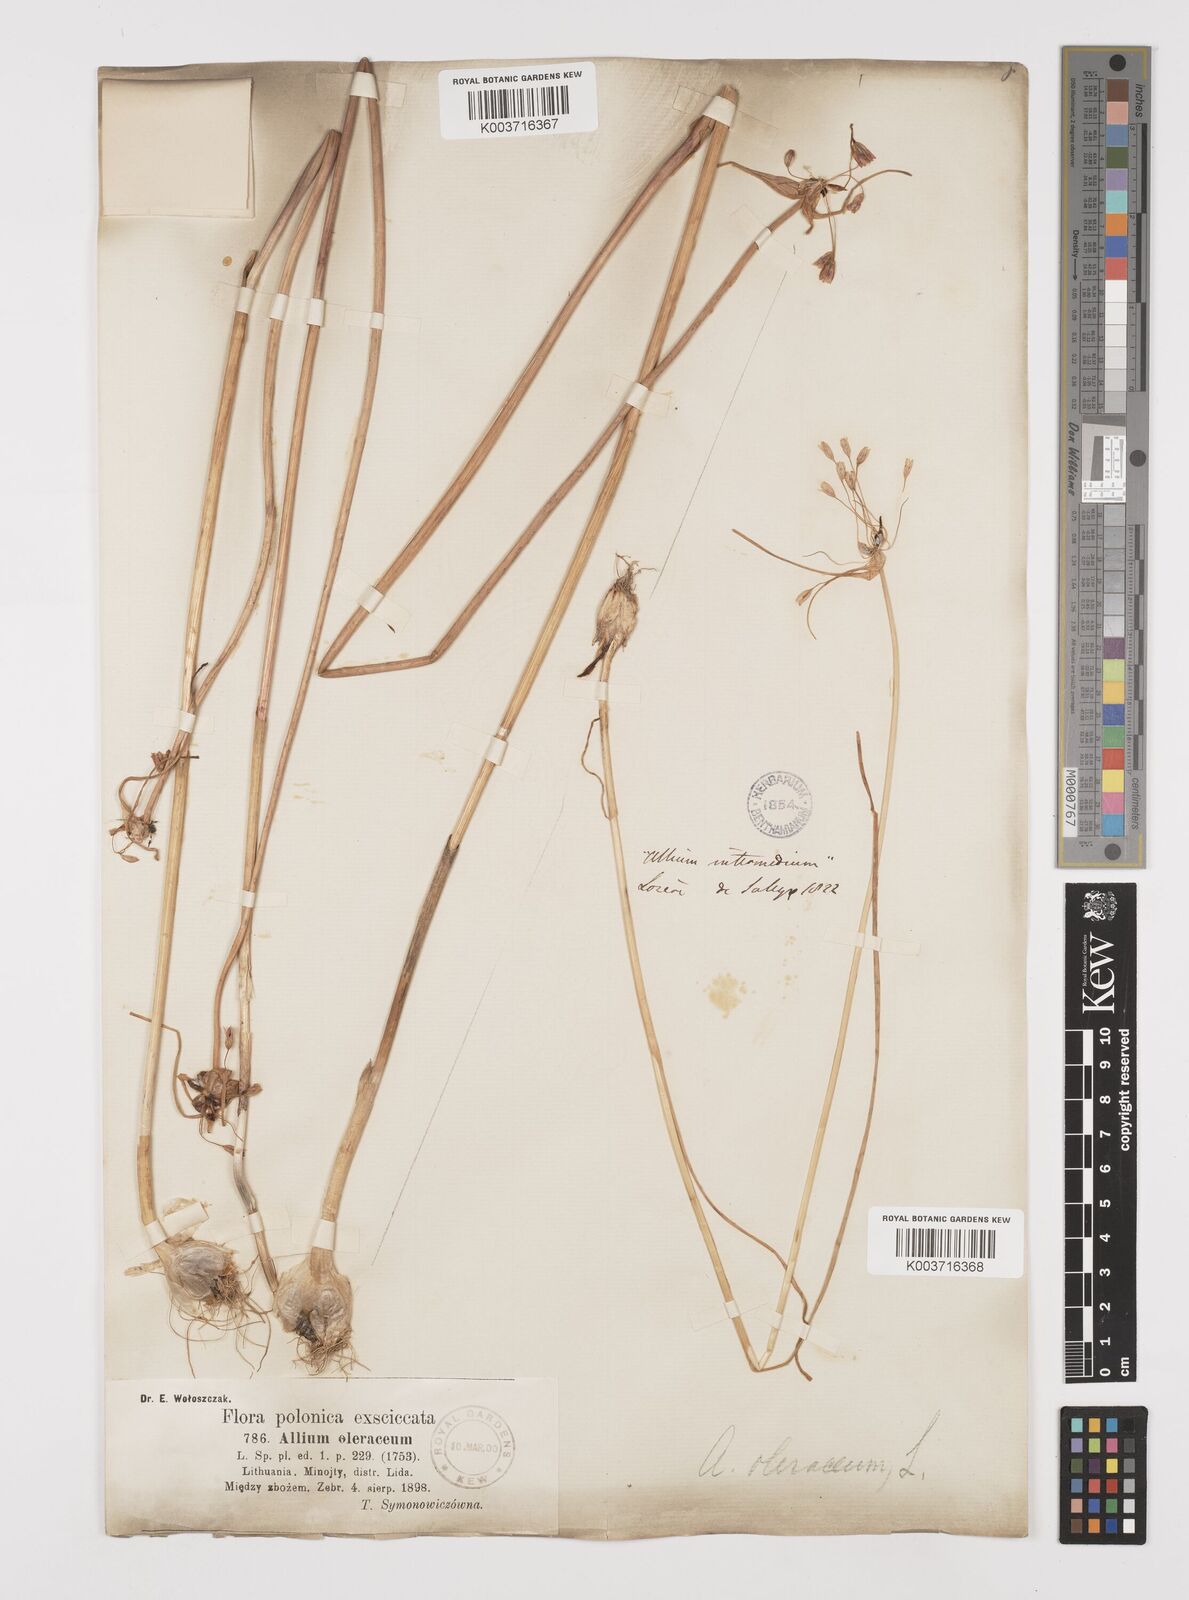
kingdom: Plantae
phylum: Tracheophyta
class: Liliopsida
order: Asparagales
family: Amaryllidaceae
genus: Allium
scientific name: Allium oleraceum
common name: Field garlic
